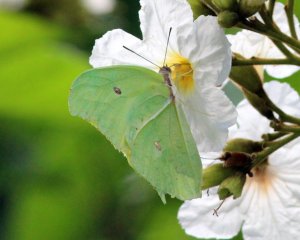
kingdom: Animalia
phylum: Arthropoda
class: Insecta
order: Lepidoptera
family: Pieridae
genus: Anteos
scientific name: Anteos maerula
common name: Yellow Angled-Sulphur
